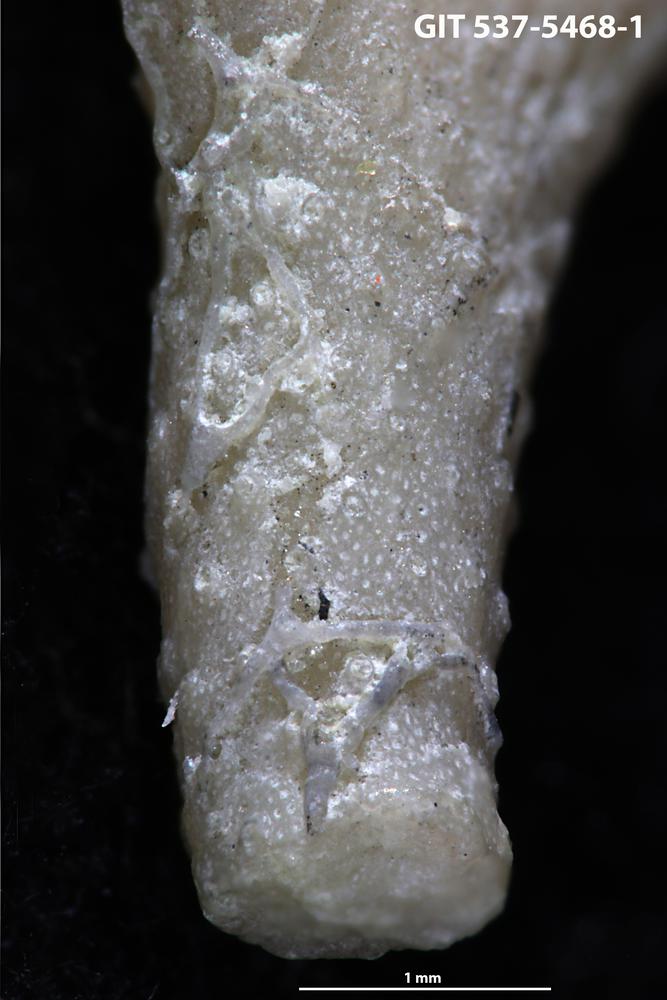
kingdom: Animalia
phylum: Bryozoa
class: Stenolaemata
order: Cyclostomatida
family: Corynotrypidae
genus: Corynotrypa
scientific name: Corynotrypa
